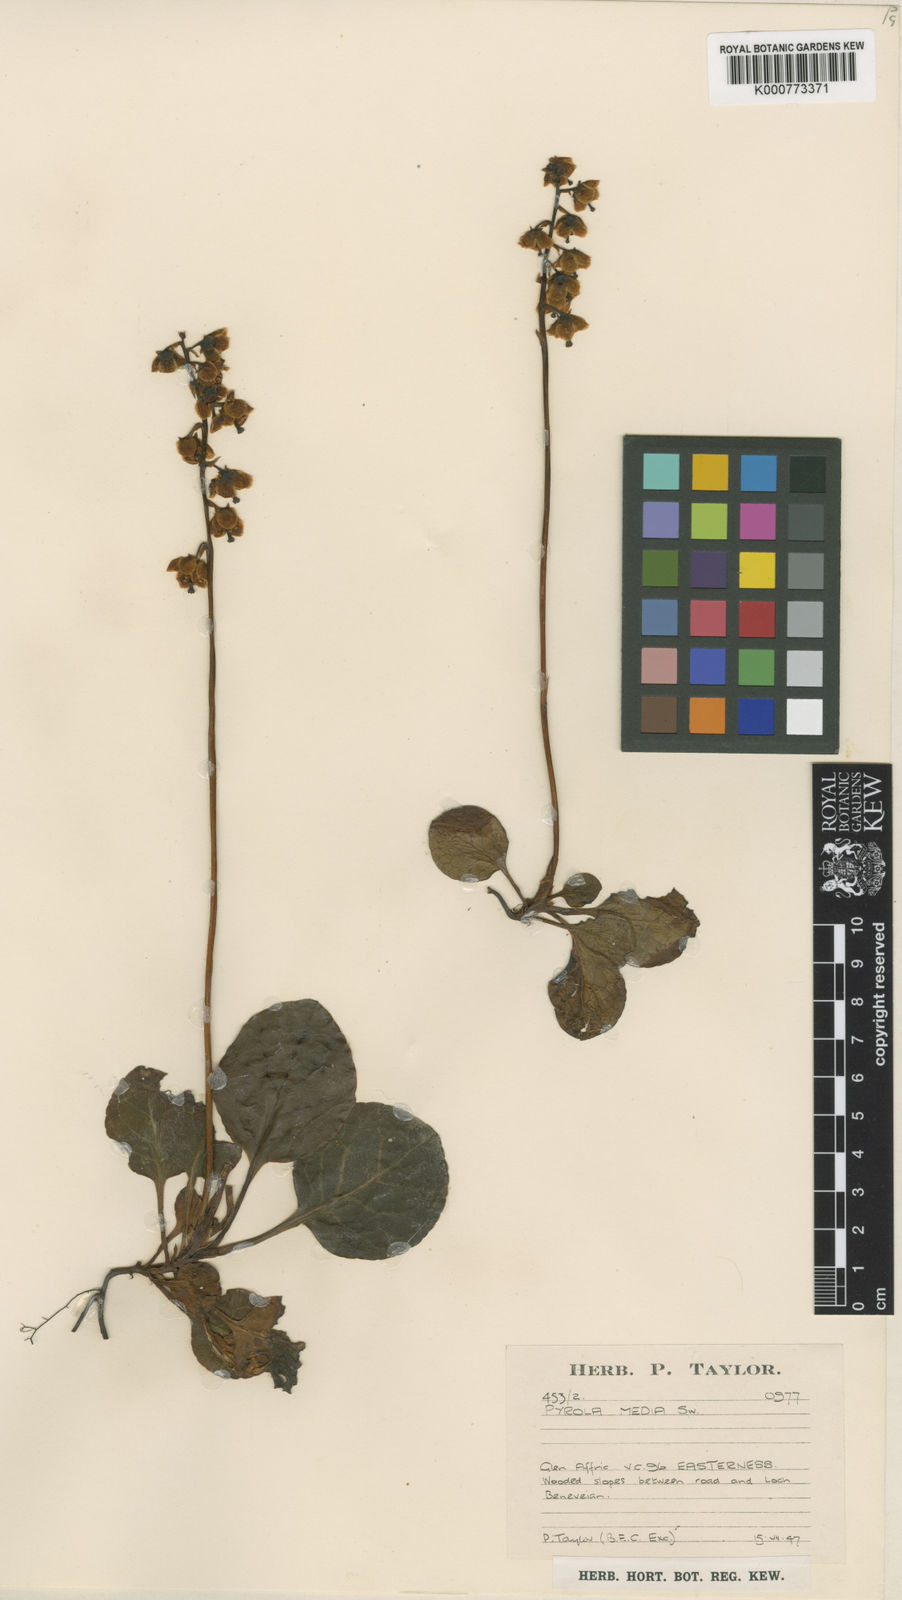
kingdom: Plantae
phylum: Tracheophyta
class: Magnoliopsida
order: Ericales
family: Ericaceae
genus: Pyrola
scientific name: Pyrola media
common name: Intermediate wintergreen
